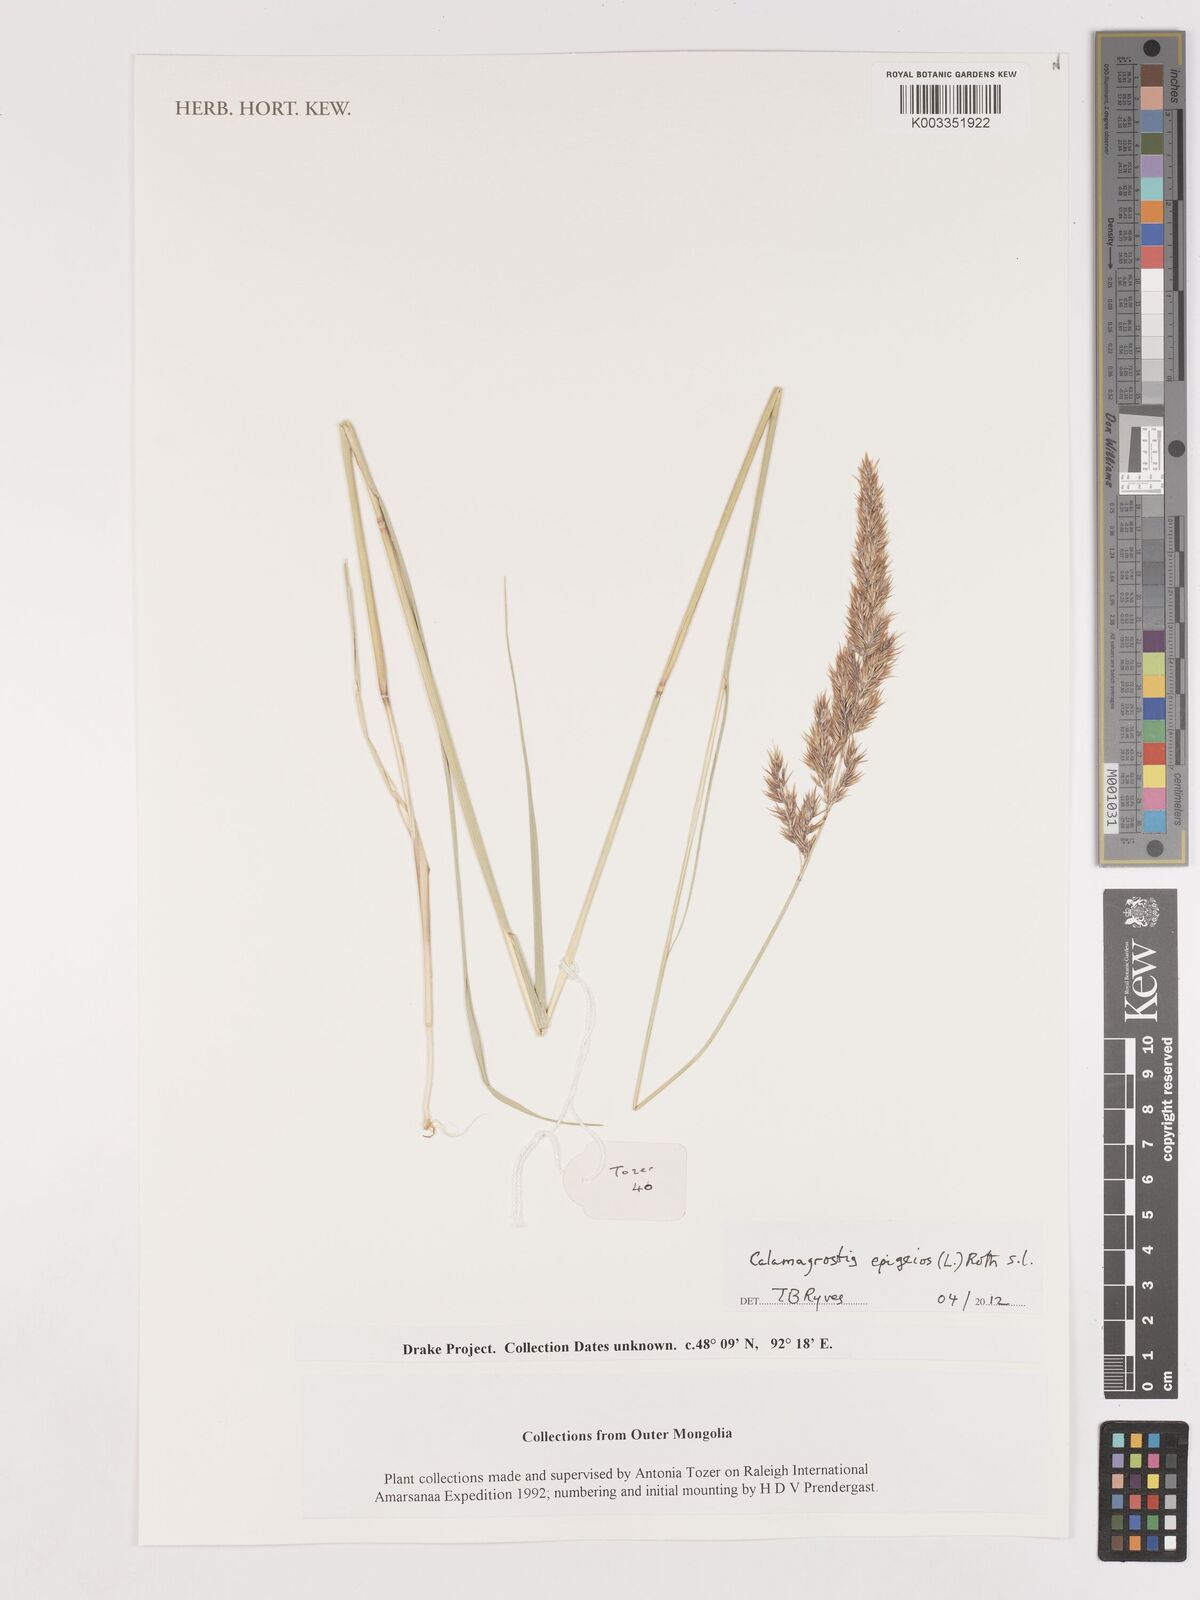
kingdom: Plantae
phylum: Tracheophyta
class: Liliopsida
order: Poales
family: Poaceae
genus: Calamagrostis
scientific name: Calamagrostis epigejos
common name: Wood small-reed
